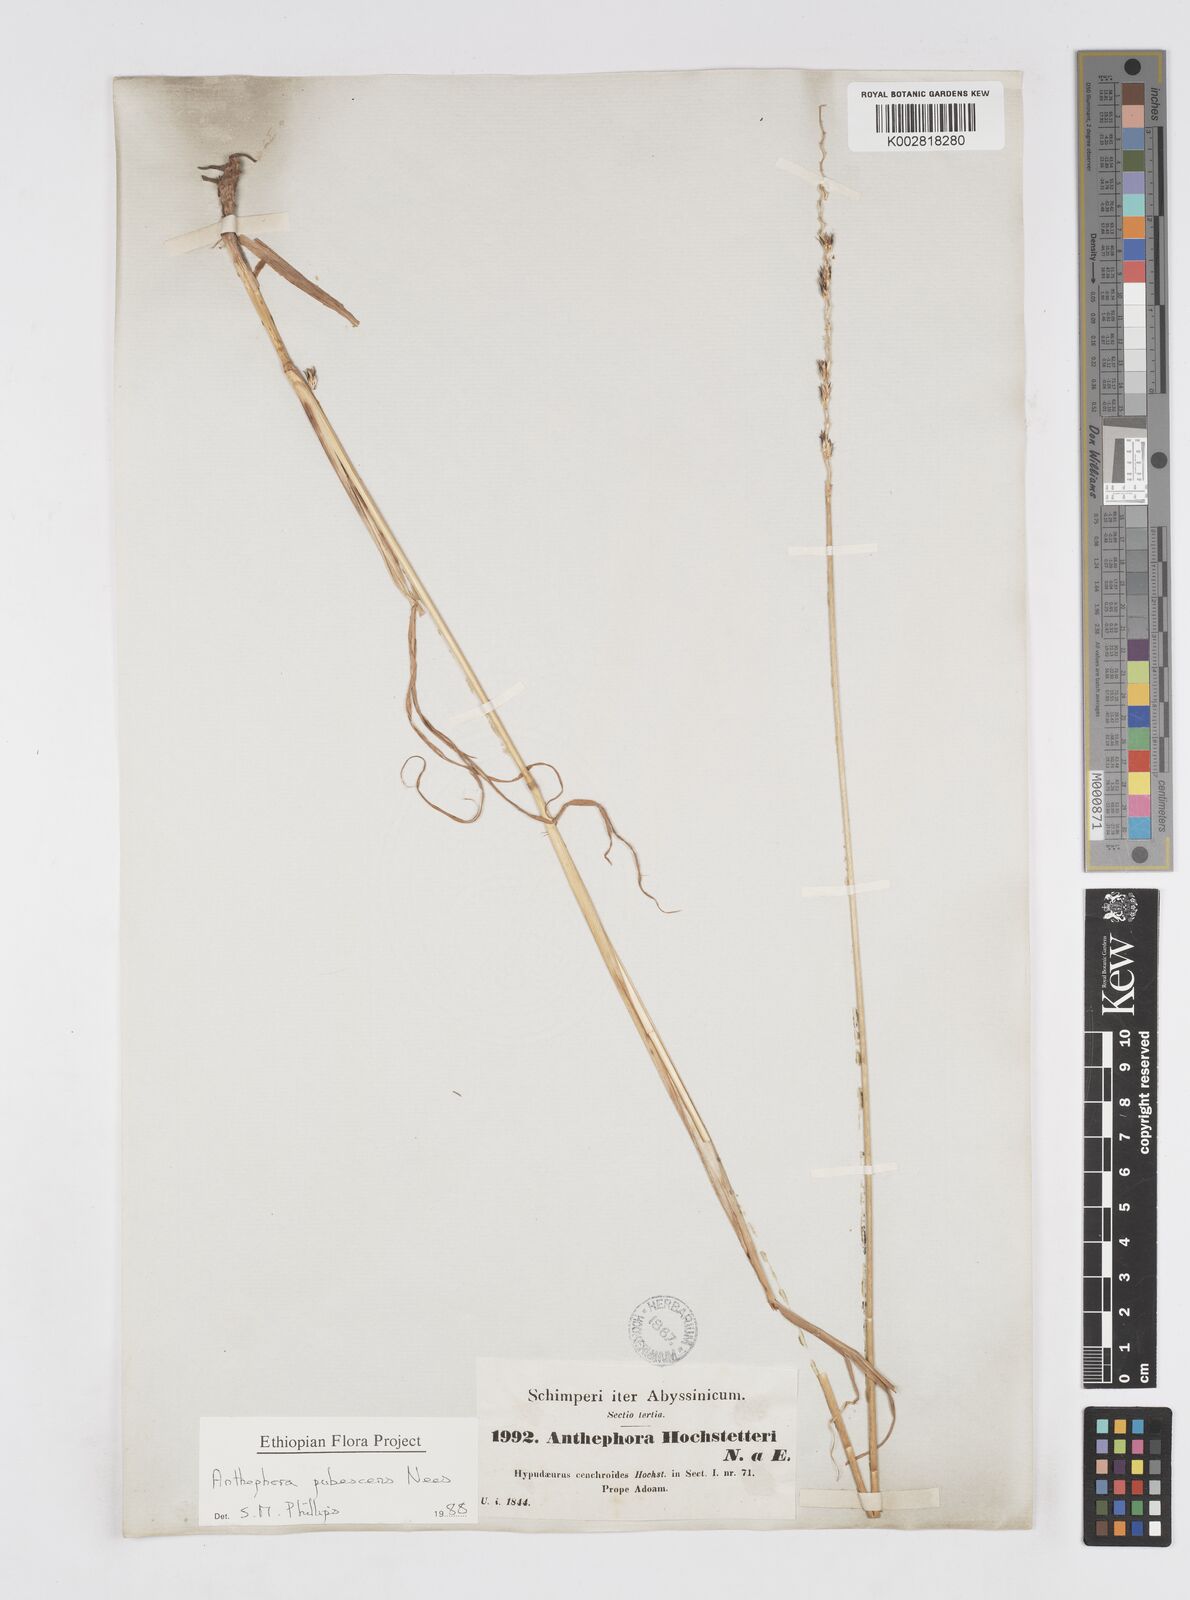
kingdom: Plantae
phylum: Tracheophyta
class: Liliopsida
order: Poales
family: Poaceae
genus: Anthephora
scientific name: Anthephora pubescens
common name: Wool grass
